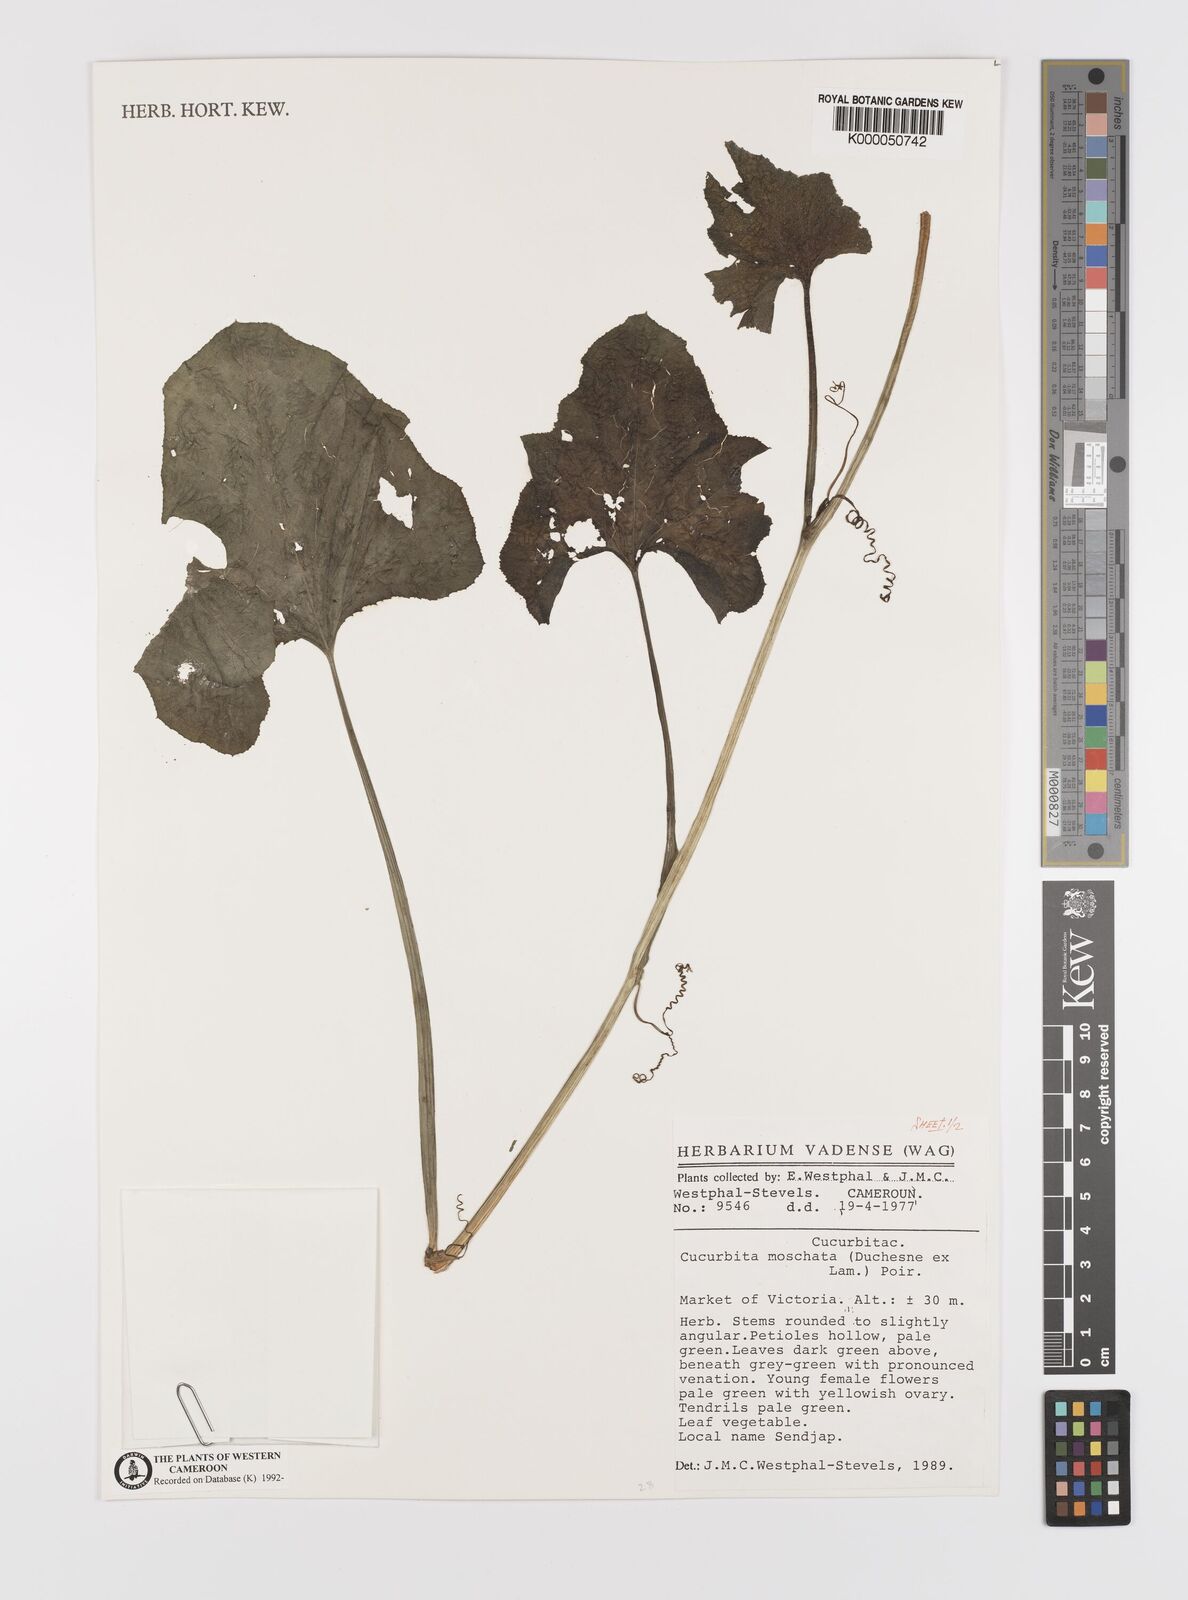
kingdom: Plantae
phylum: Tracheophyta
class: Magnoliopsida
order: Cucurbitales
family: Cucurbitaceae
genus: Cucurbita
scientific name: Cucurbita
